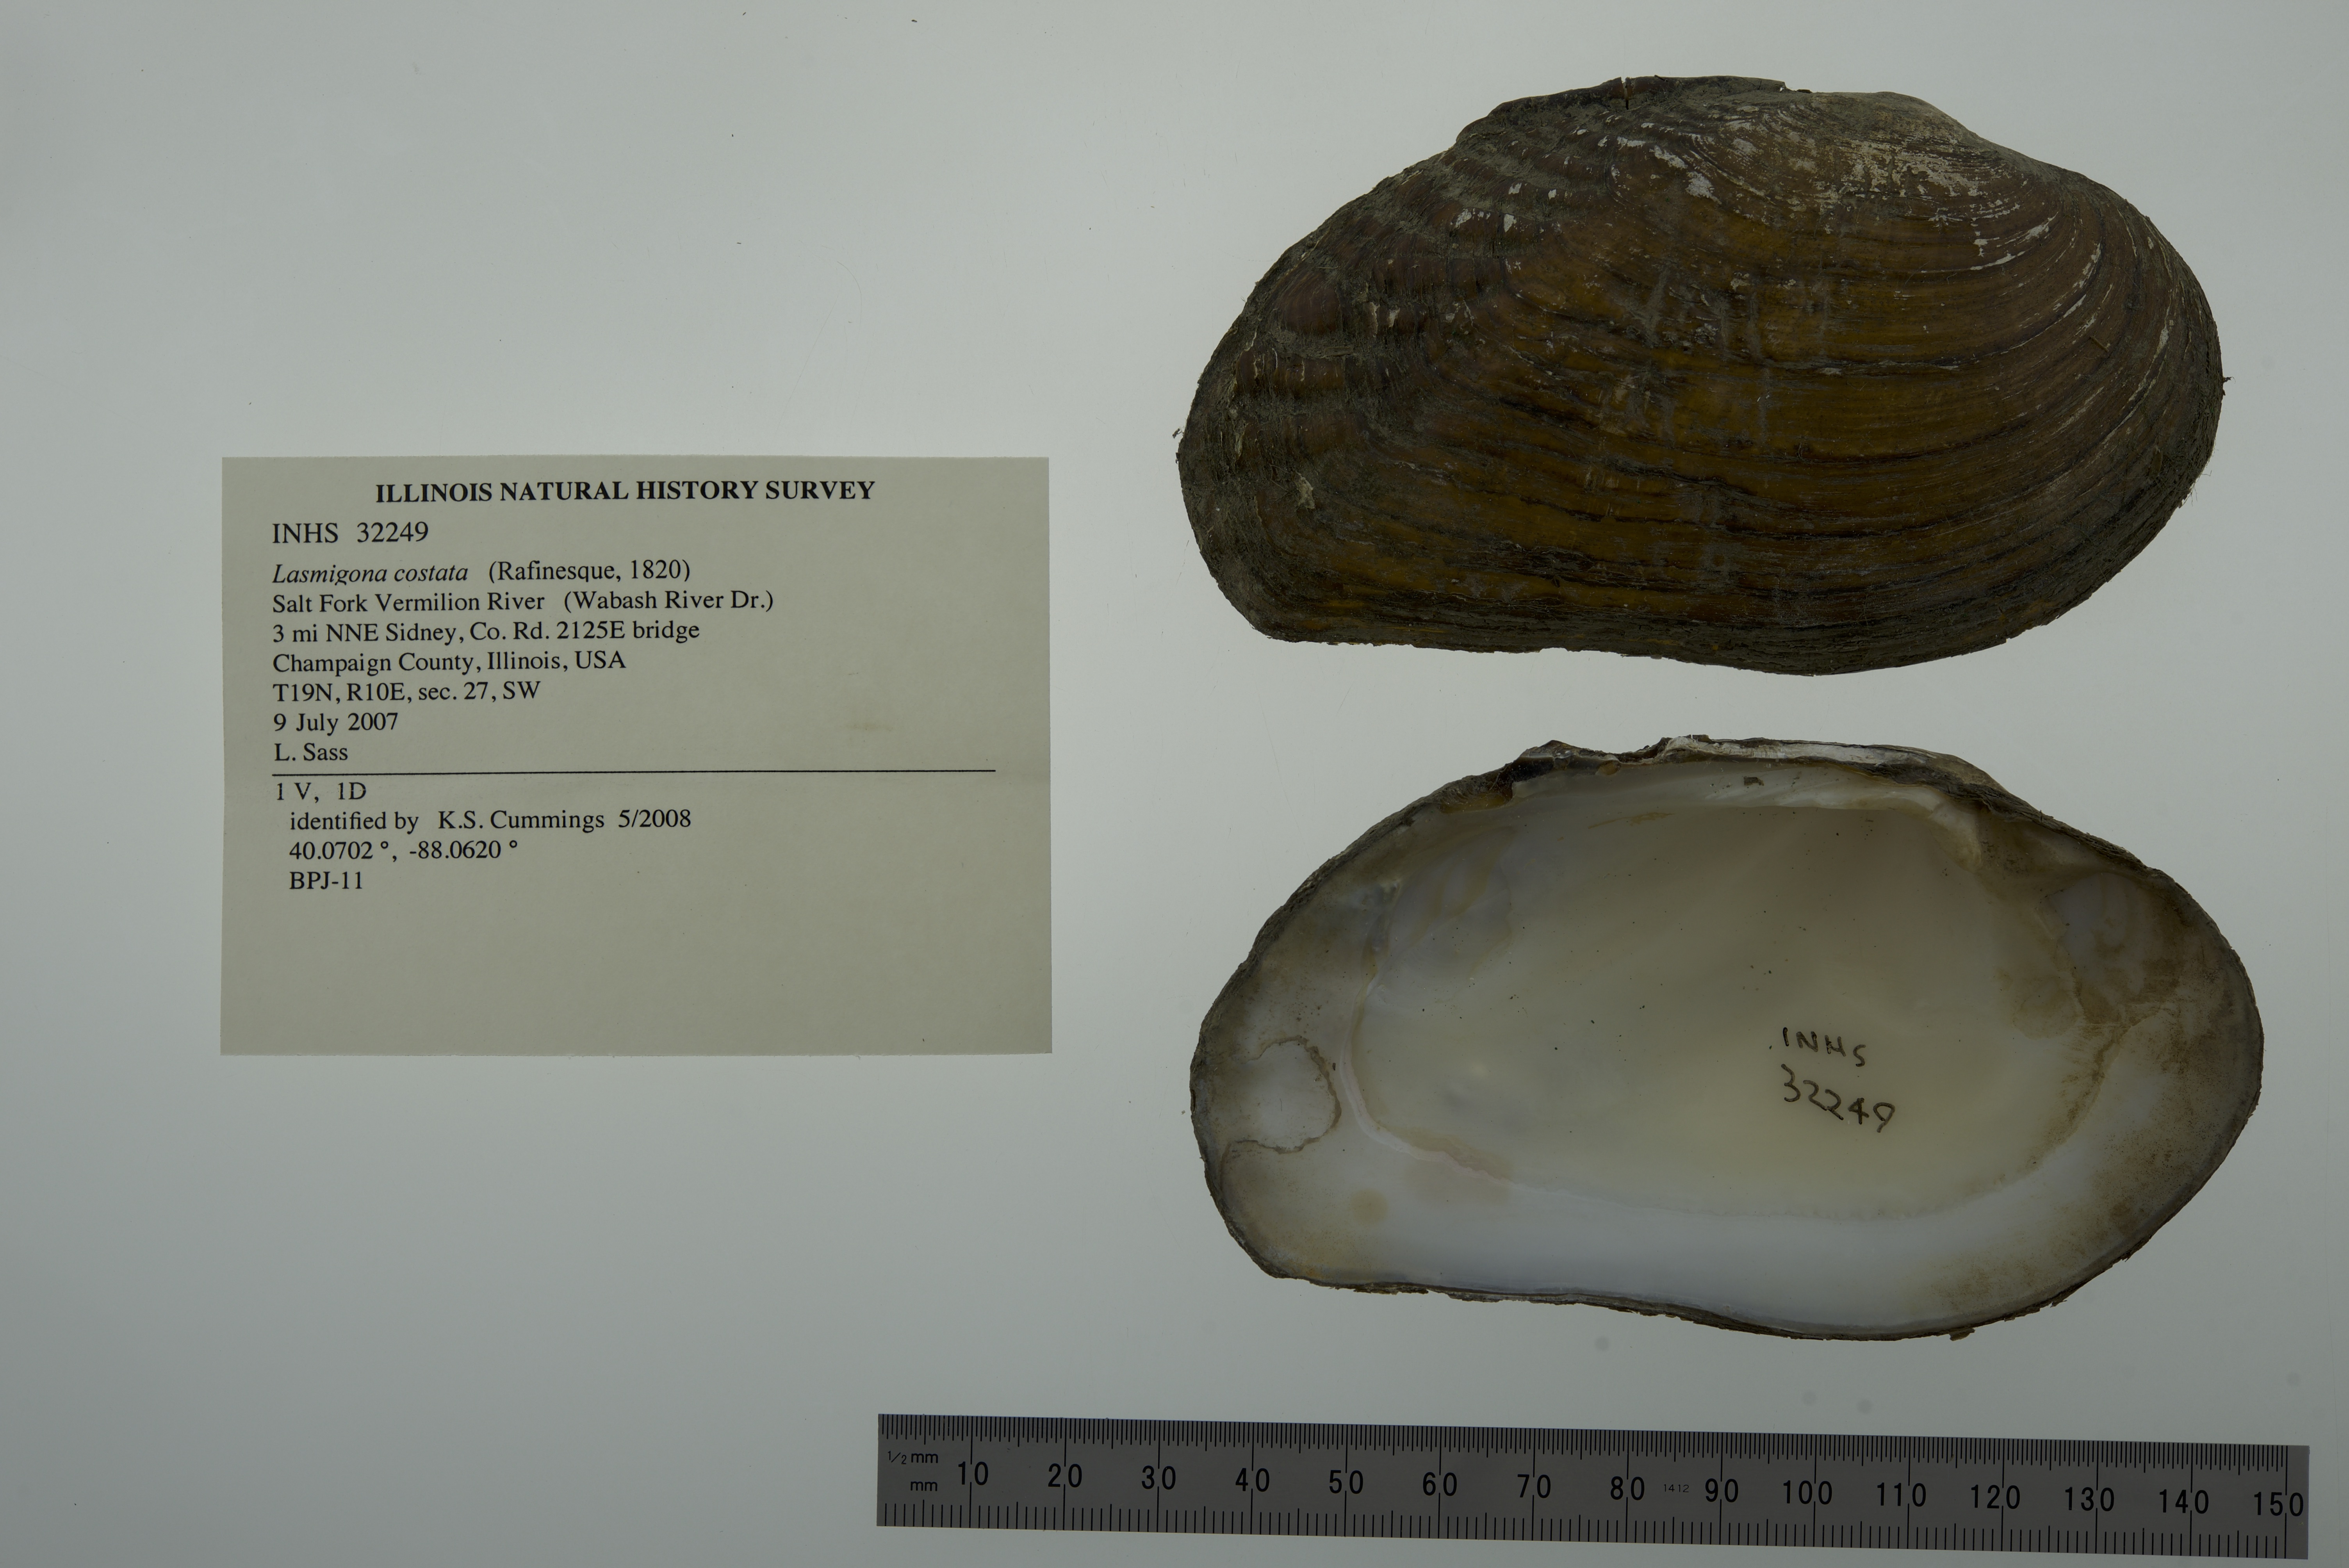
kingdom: Animalia
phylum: Mollusca
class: Bivalvia
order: Unionida
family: Unionidae
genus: Lasmigona
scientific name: Lasmigona costata
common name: Flutedshell
